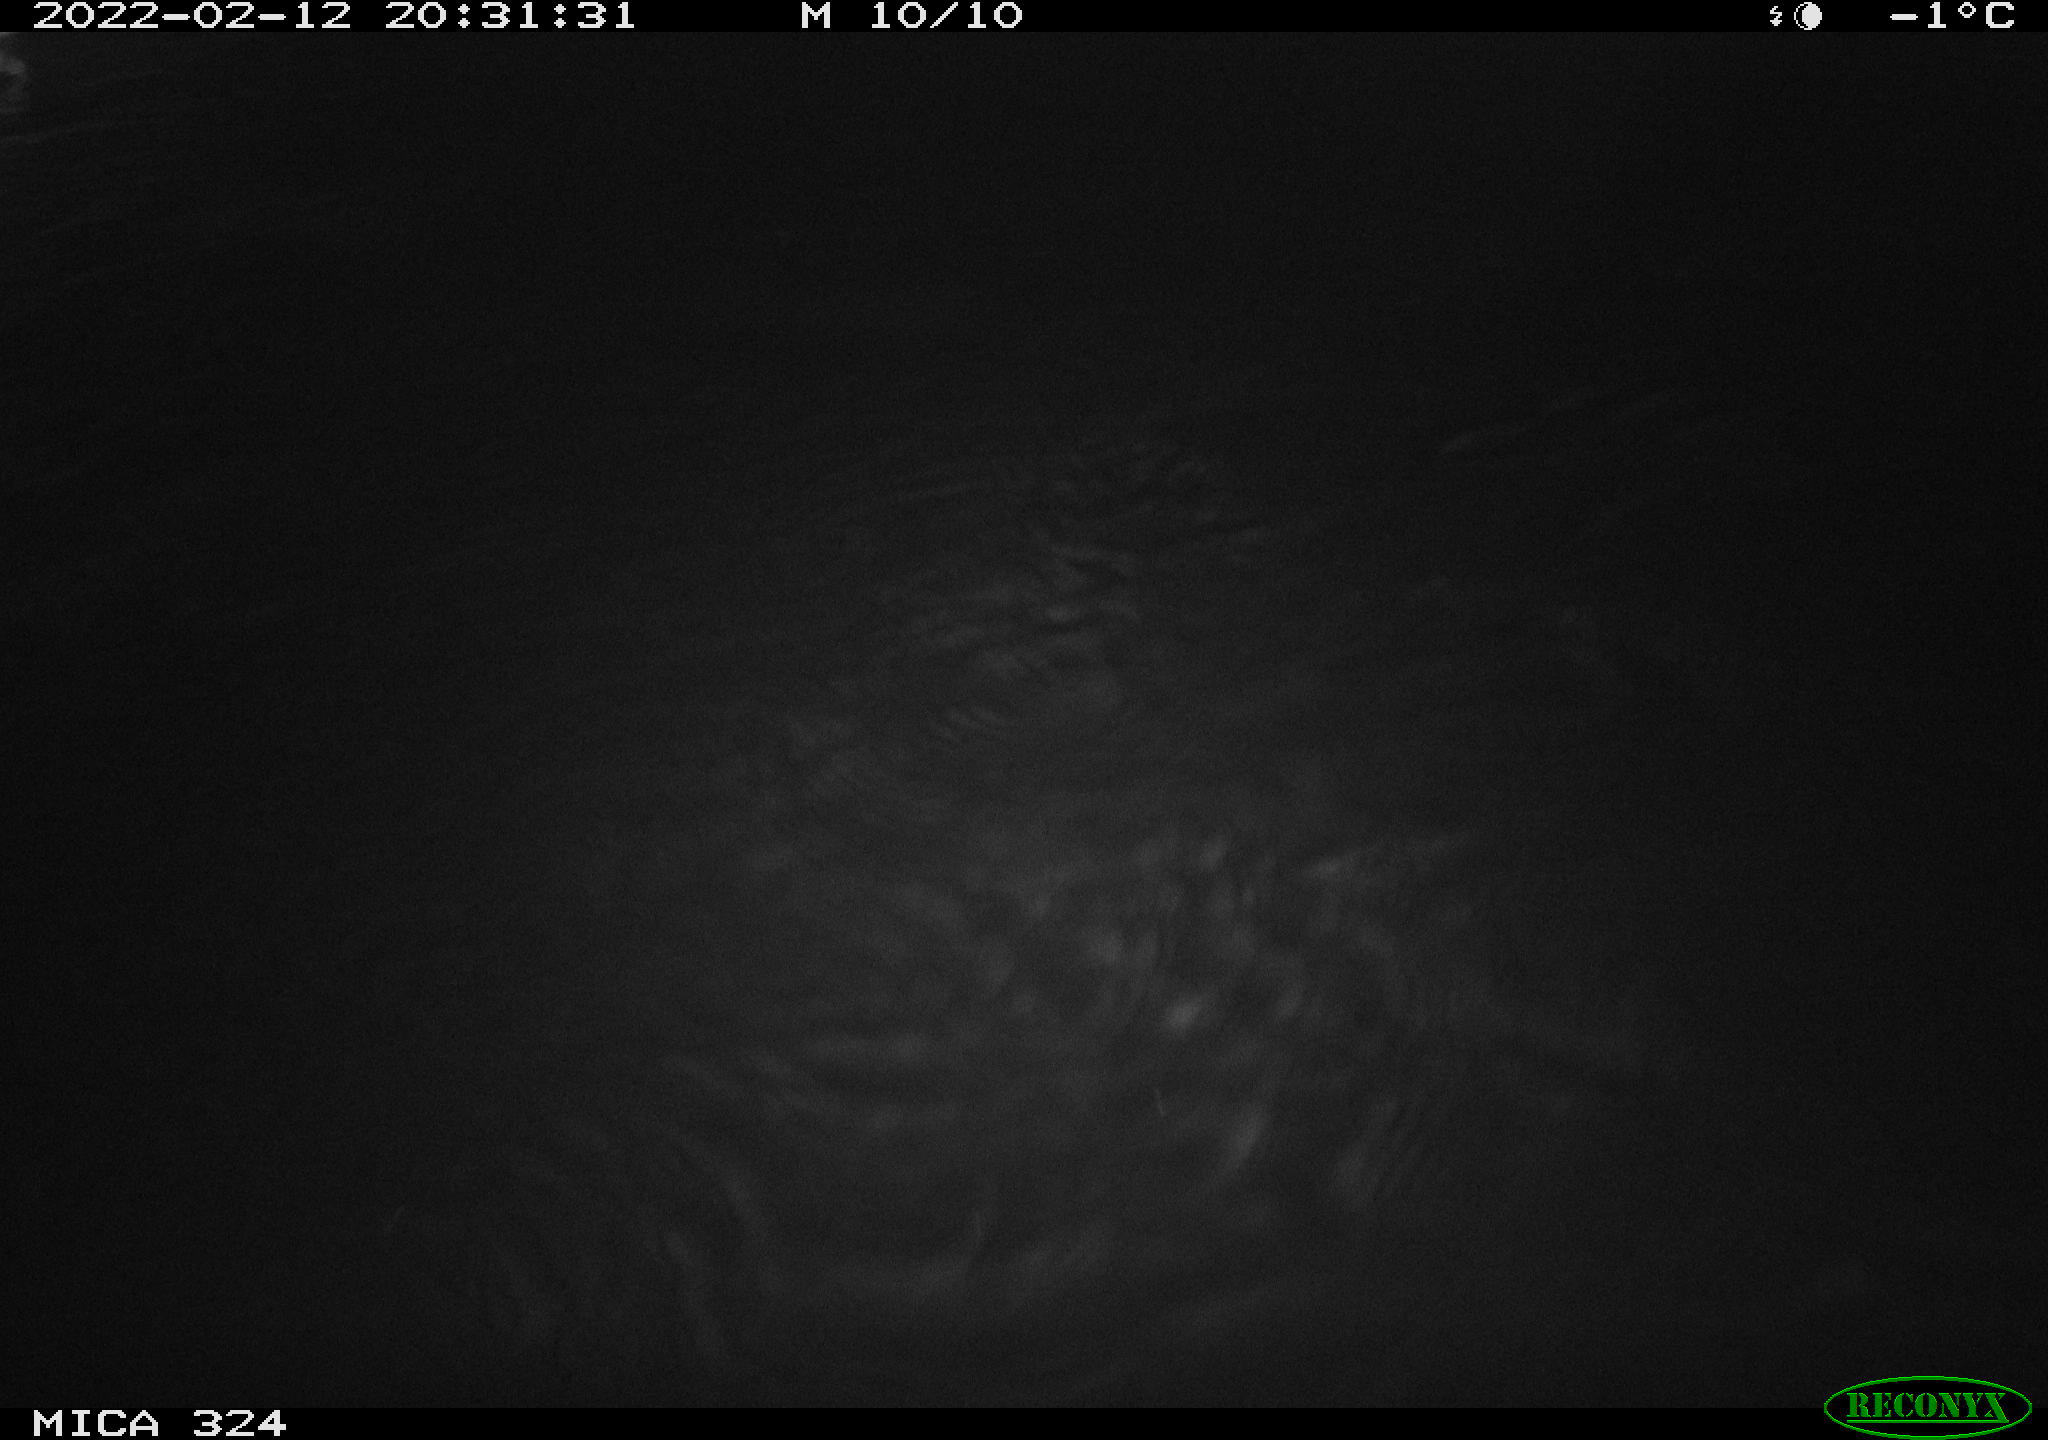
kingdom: Animalia
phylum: Chordata
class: Mammalia
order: Rodentia
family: Cricetidae
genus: Ondatra
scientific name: Ondatra zibethicus
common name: Muskrat
